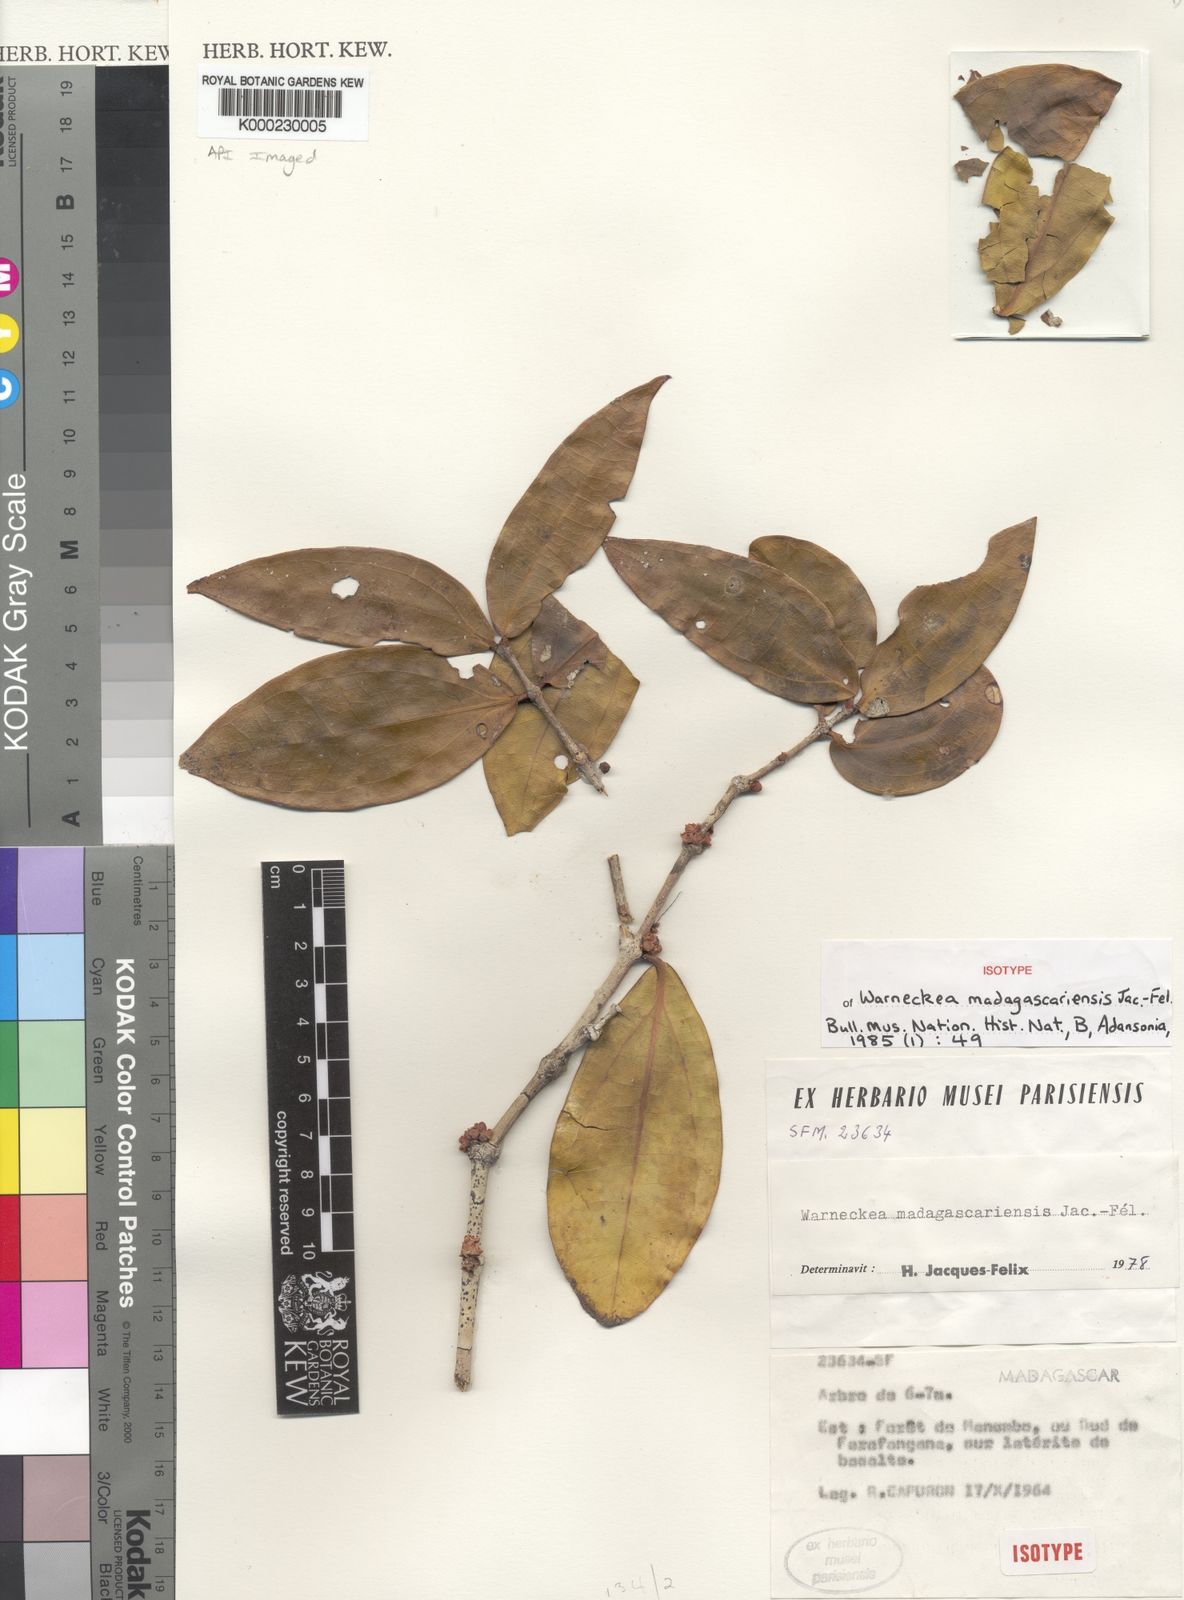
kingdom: Plantae
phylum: Tracheophyta
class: Magnoliopsida
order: Myrtales
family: Melastomataceae
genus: Warneckea
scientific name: Warneckea
